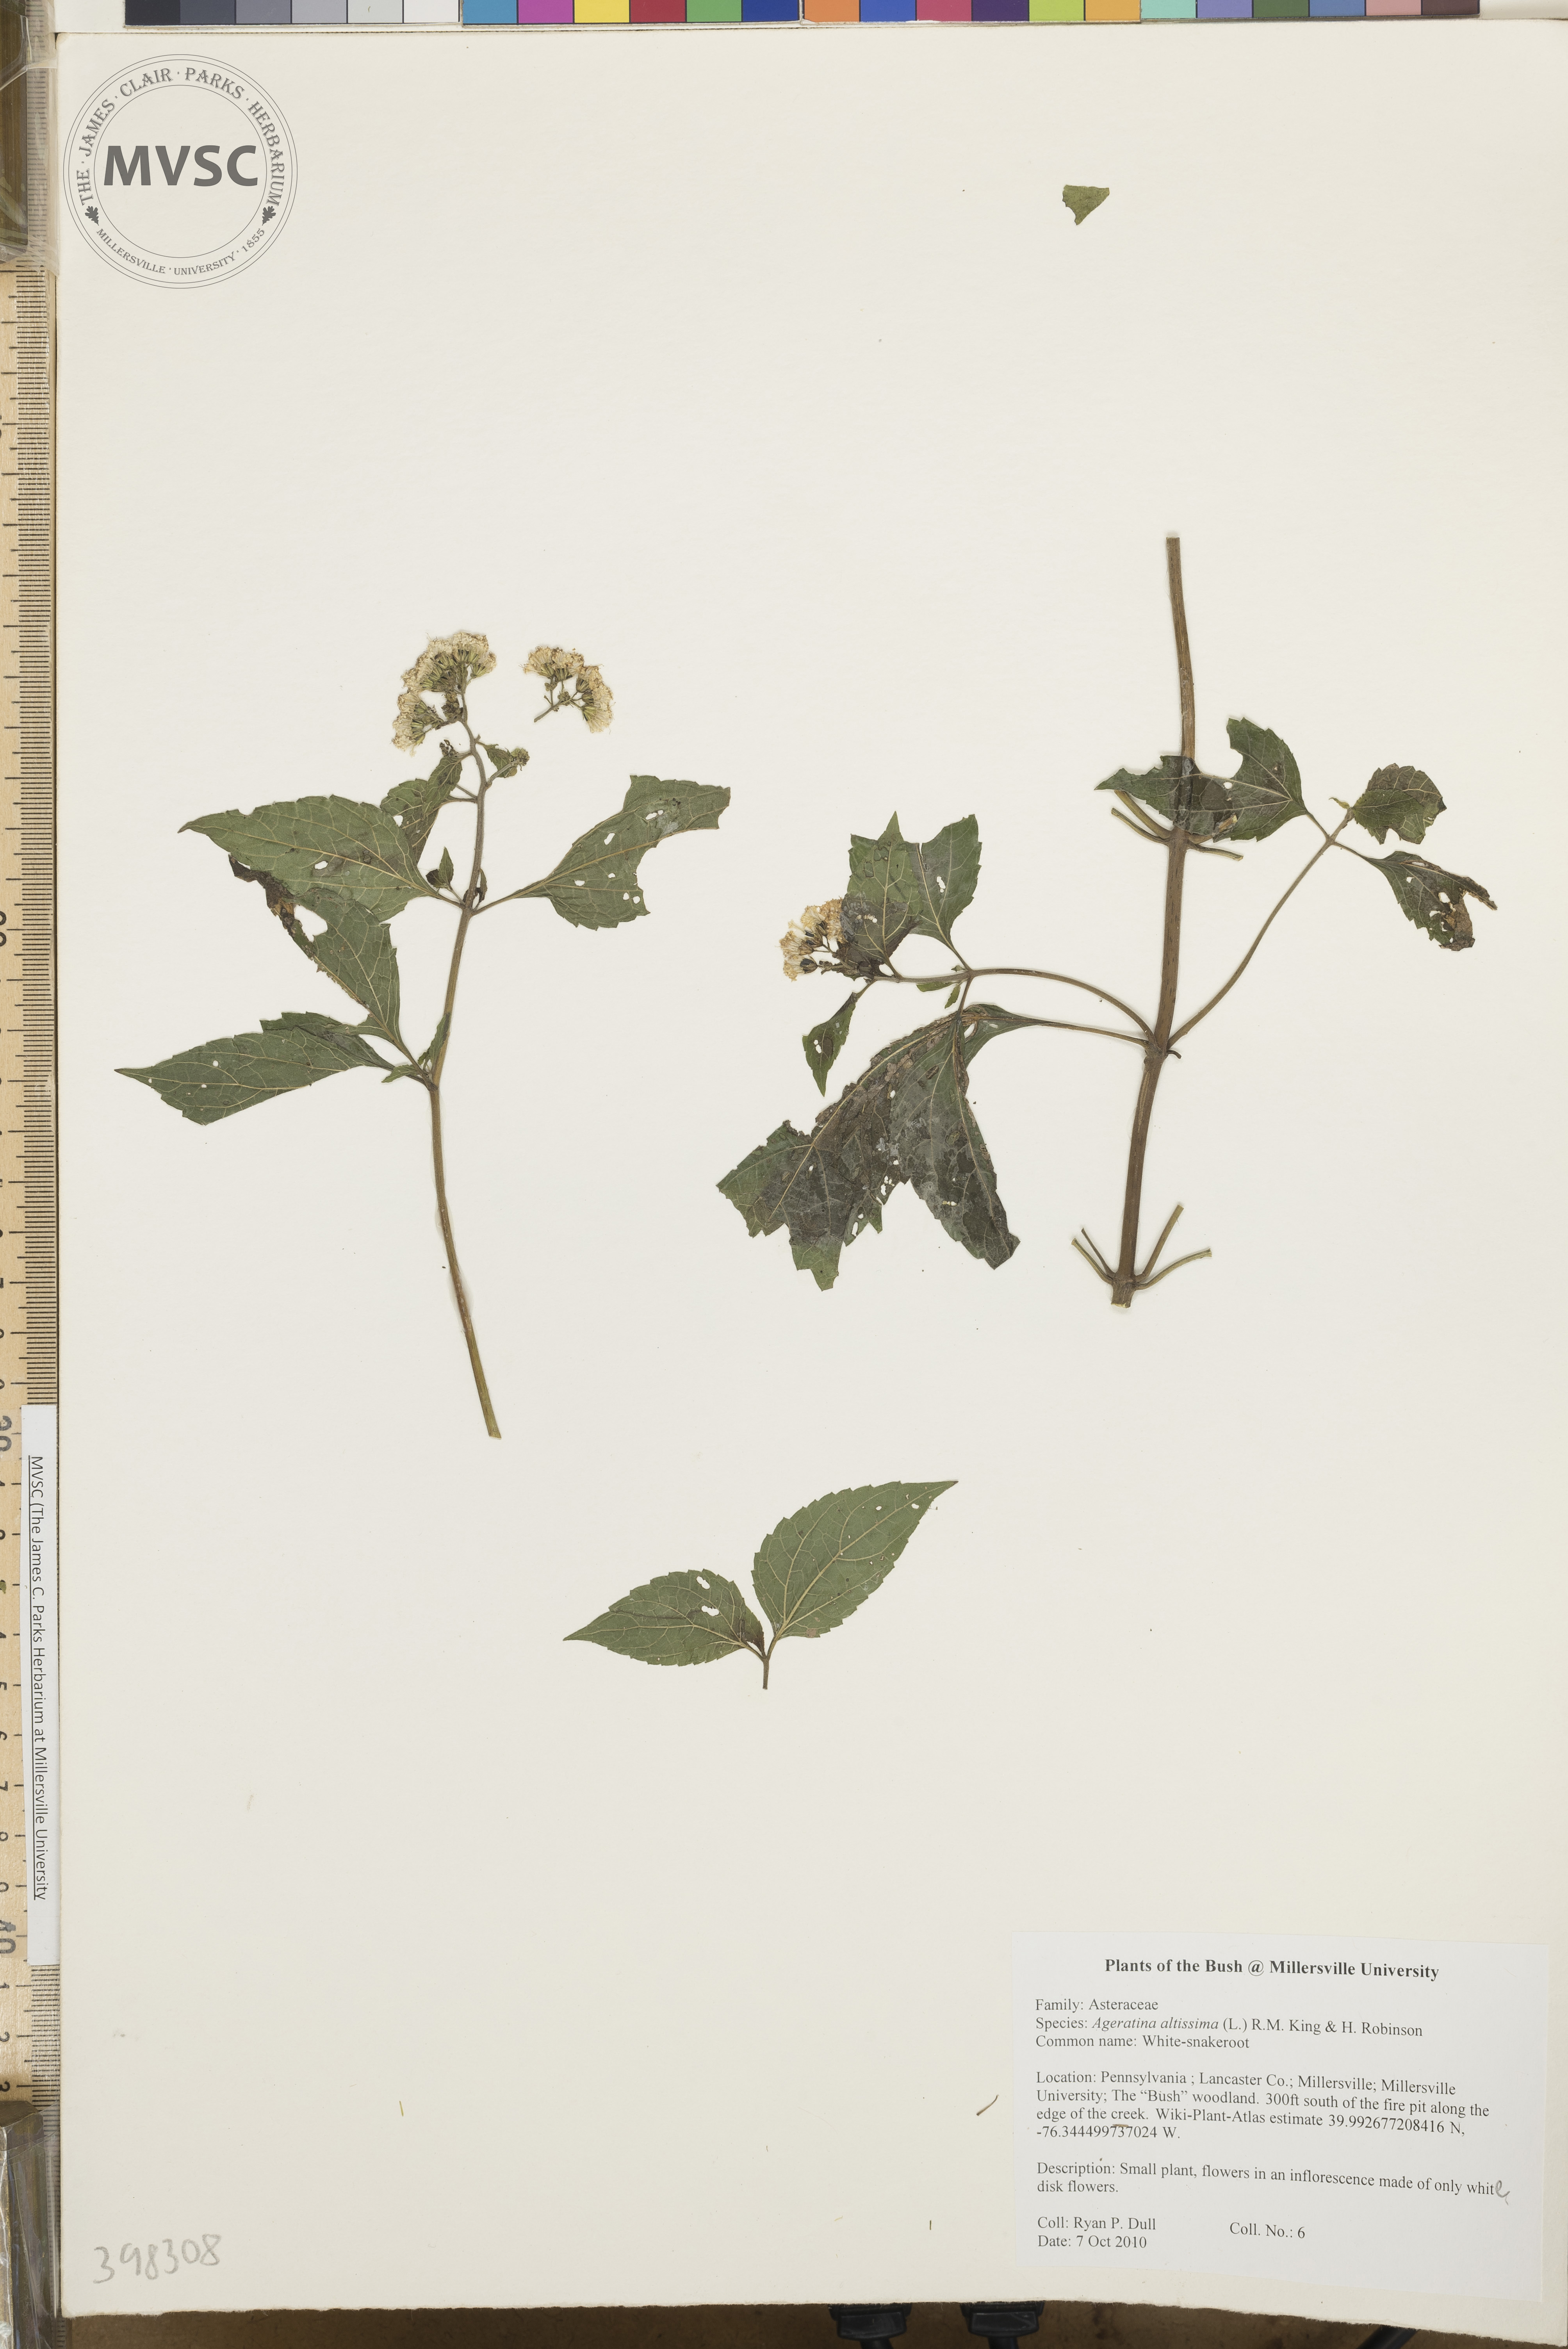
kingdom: Plantae
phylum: Tracheophyta
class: Magnoliopsida
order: Asterales
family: Asteraceae
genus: Ageratina
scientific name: Ageratina altissima
